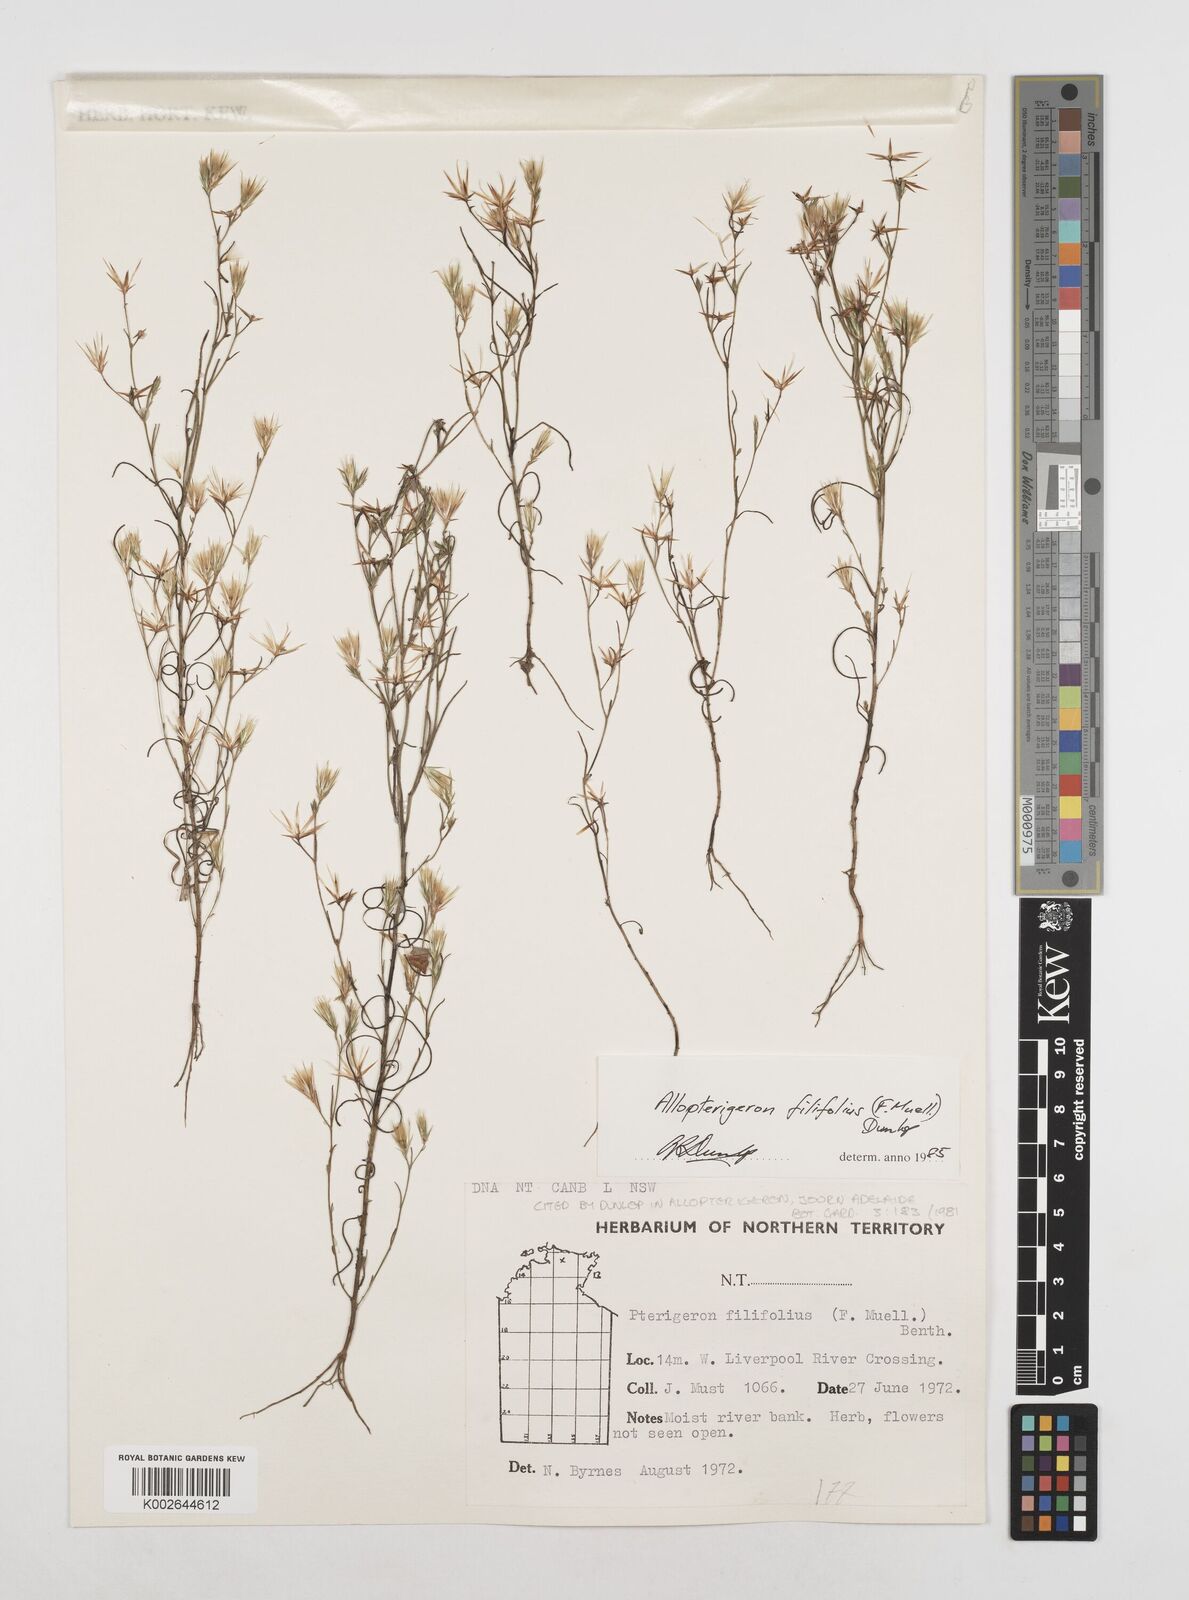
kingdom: Plantae
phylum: Tracheophyta
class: Magnoliopsida
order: Asterales
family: Asteraceae
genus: Allopterigeron
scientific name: Allopterigeron filifolius
